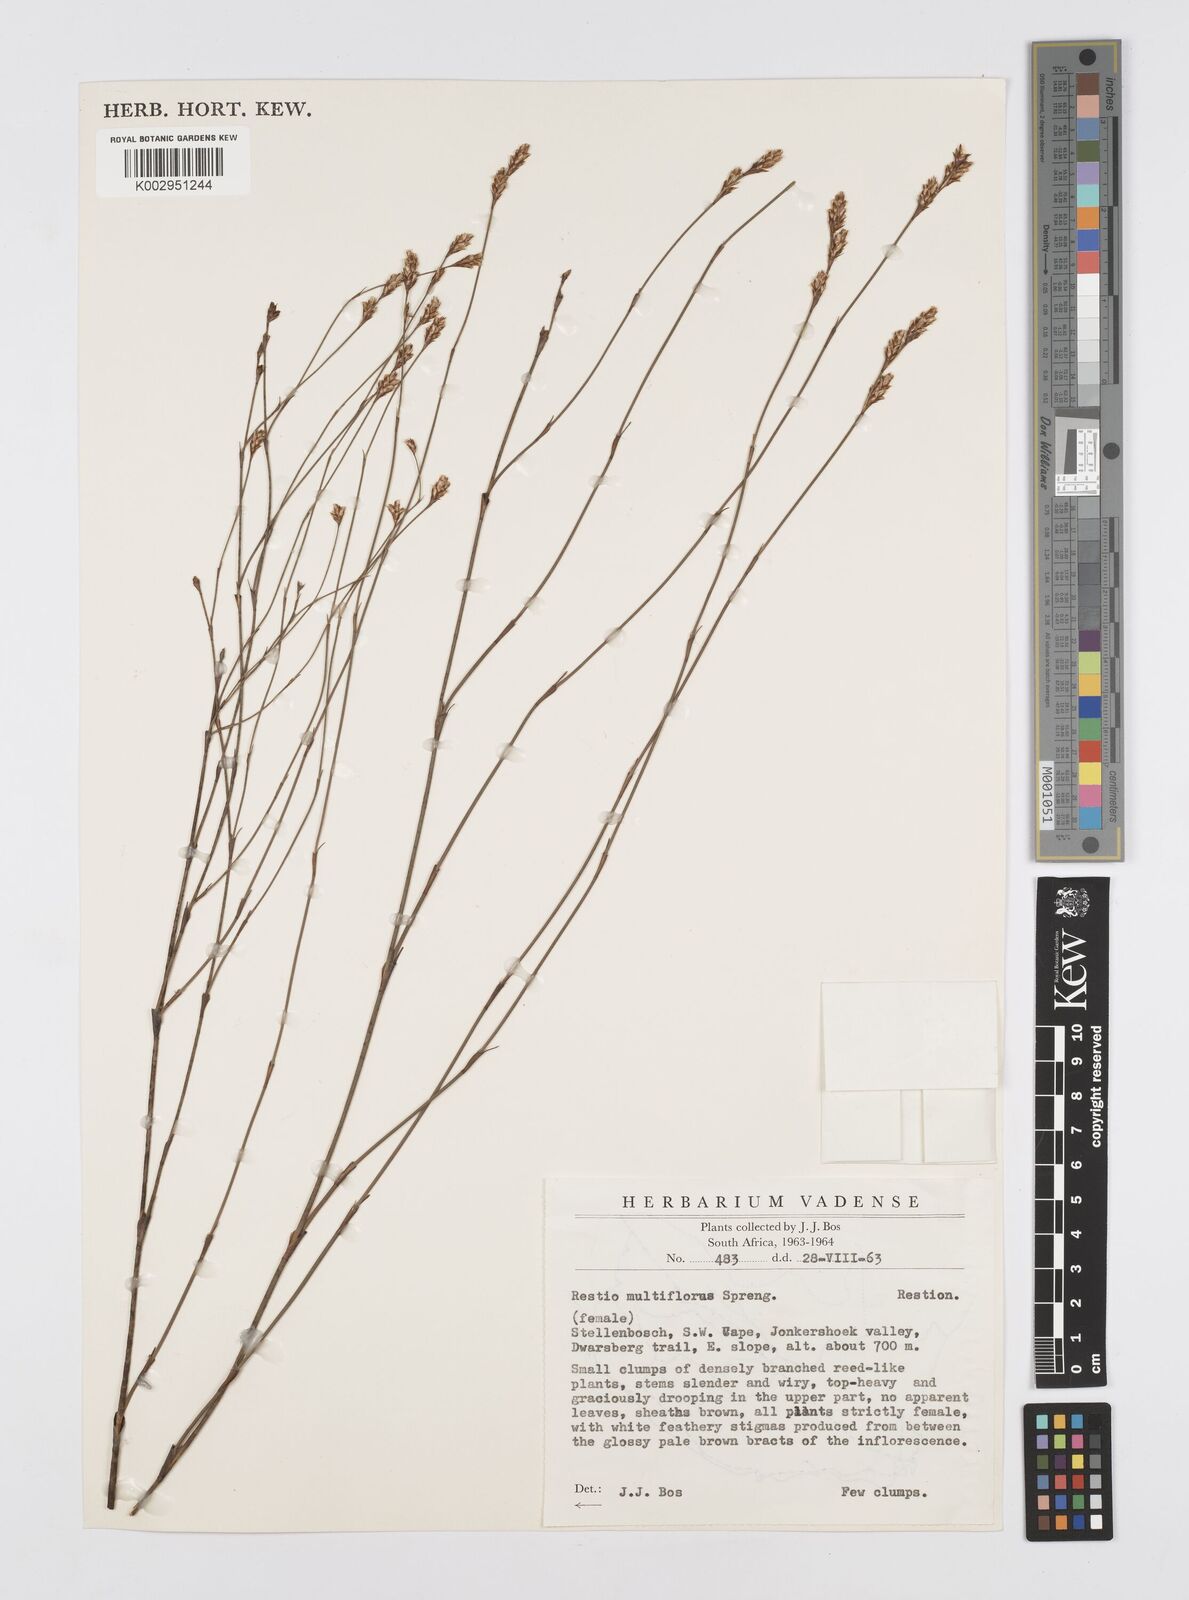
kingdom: Plantae
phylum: Tracheophyta
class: Liliopsida
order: Poales
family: Restionaceae
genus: Restio
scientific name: Restio multiflorus
